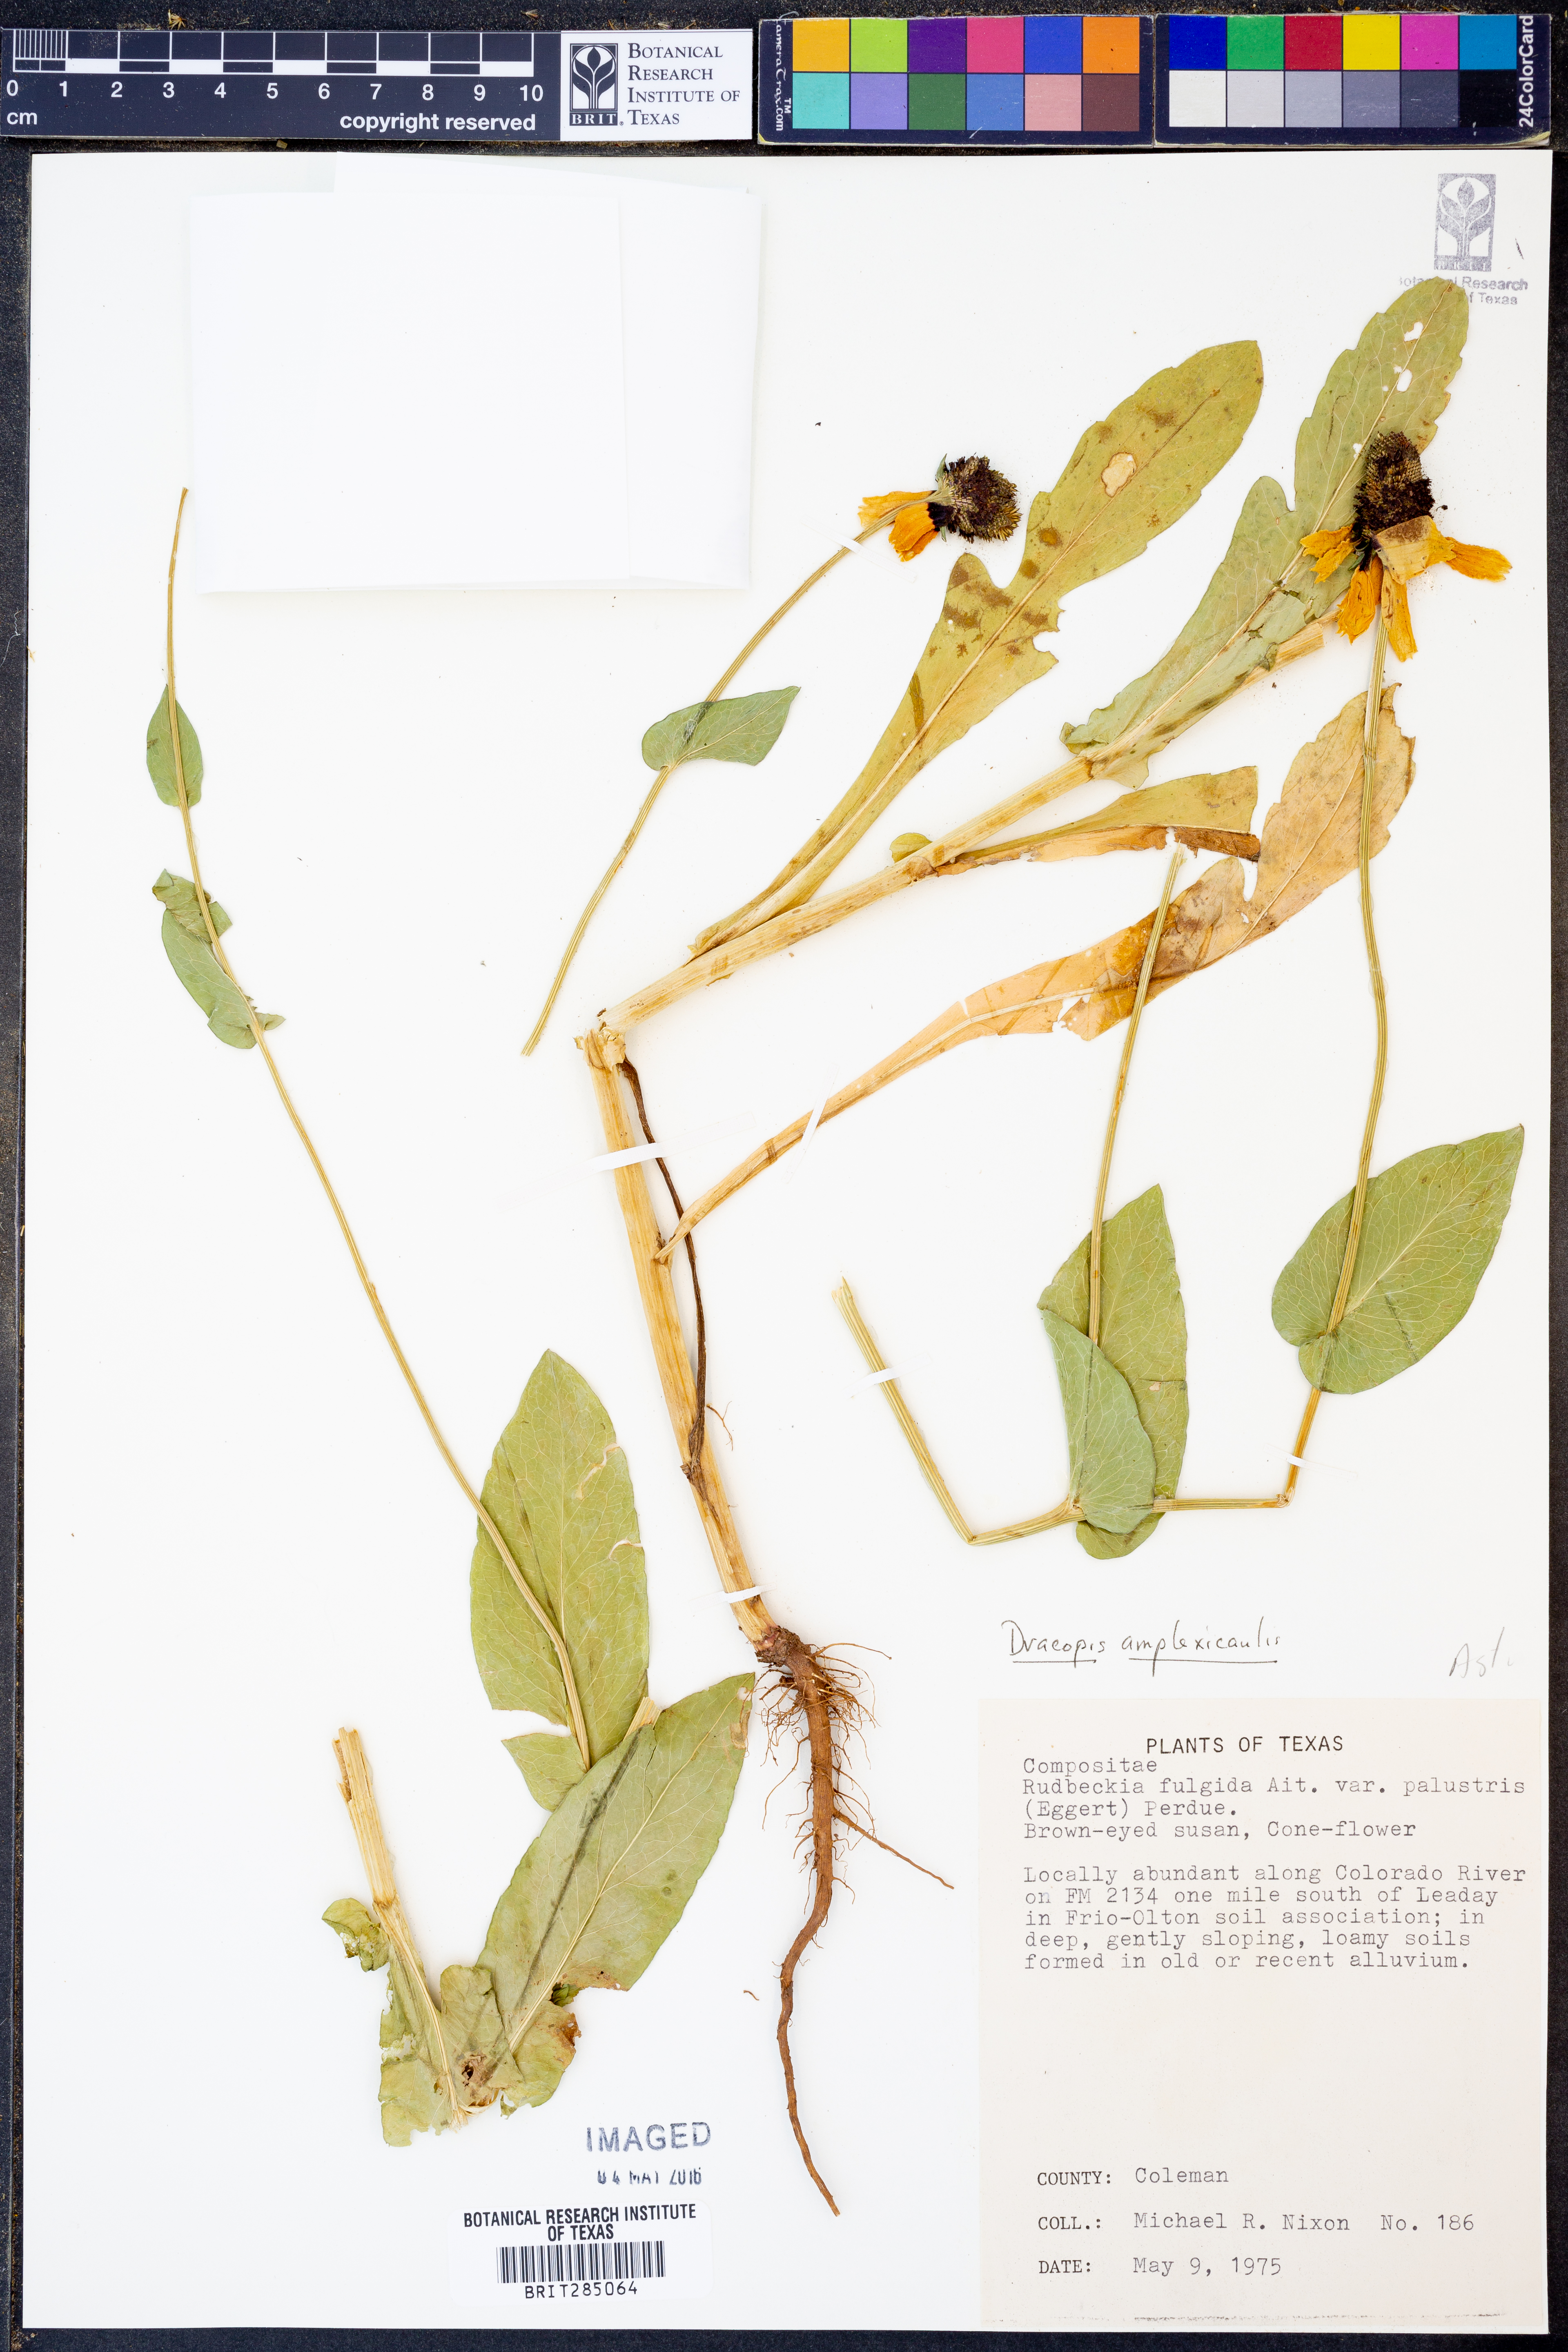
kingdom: Plantae
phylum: Tracheophyta
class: Magnoliopsida
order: Asterales
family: Asteraceae
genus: Rudbeckia
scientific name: Rudbeckia amplexicaulis
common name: Clasping-leaf coneflower
